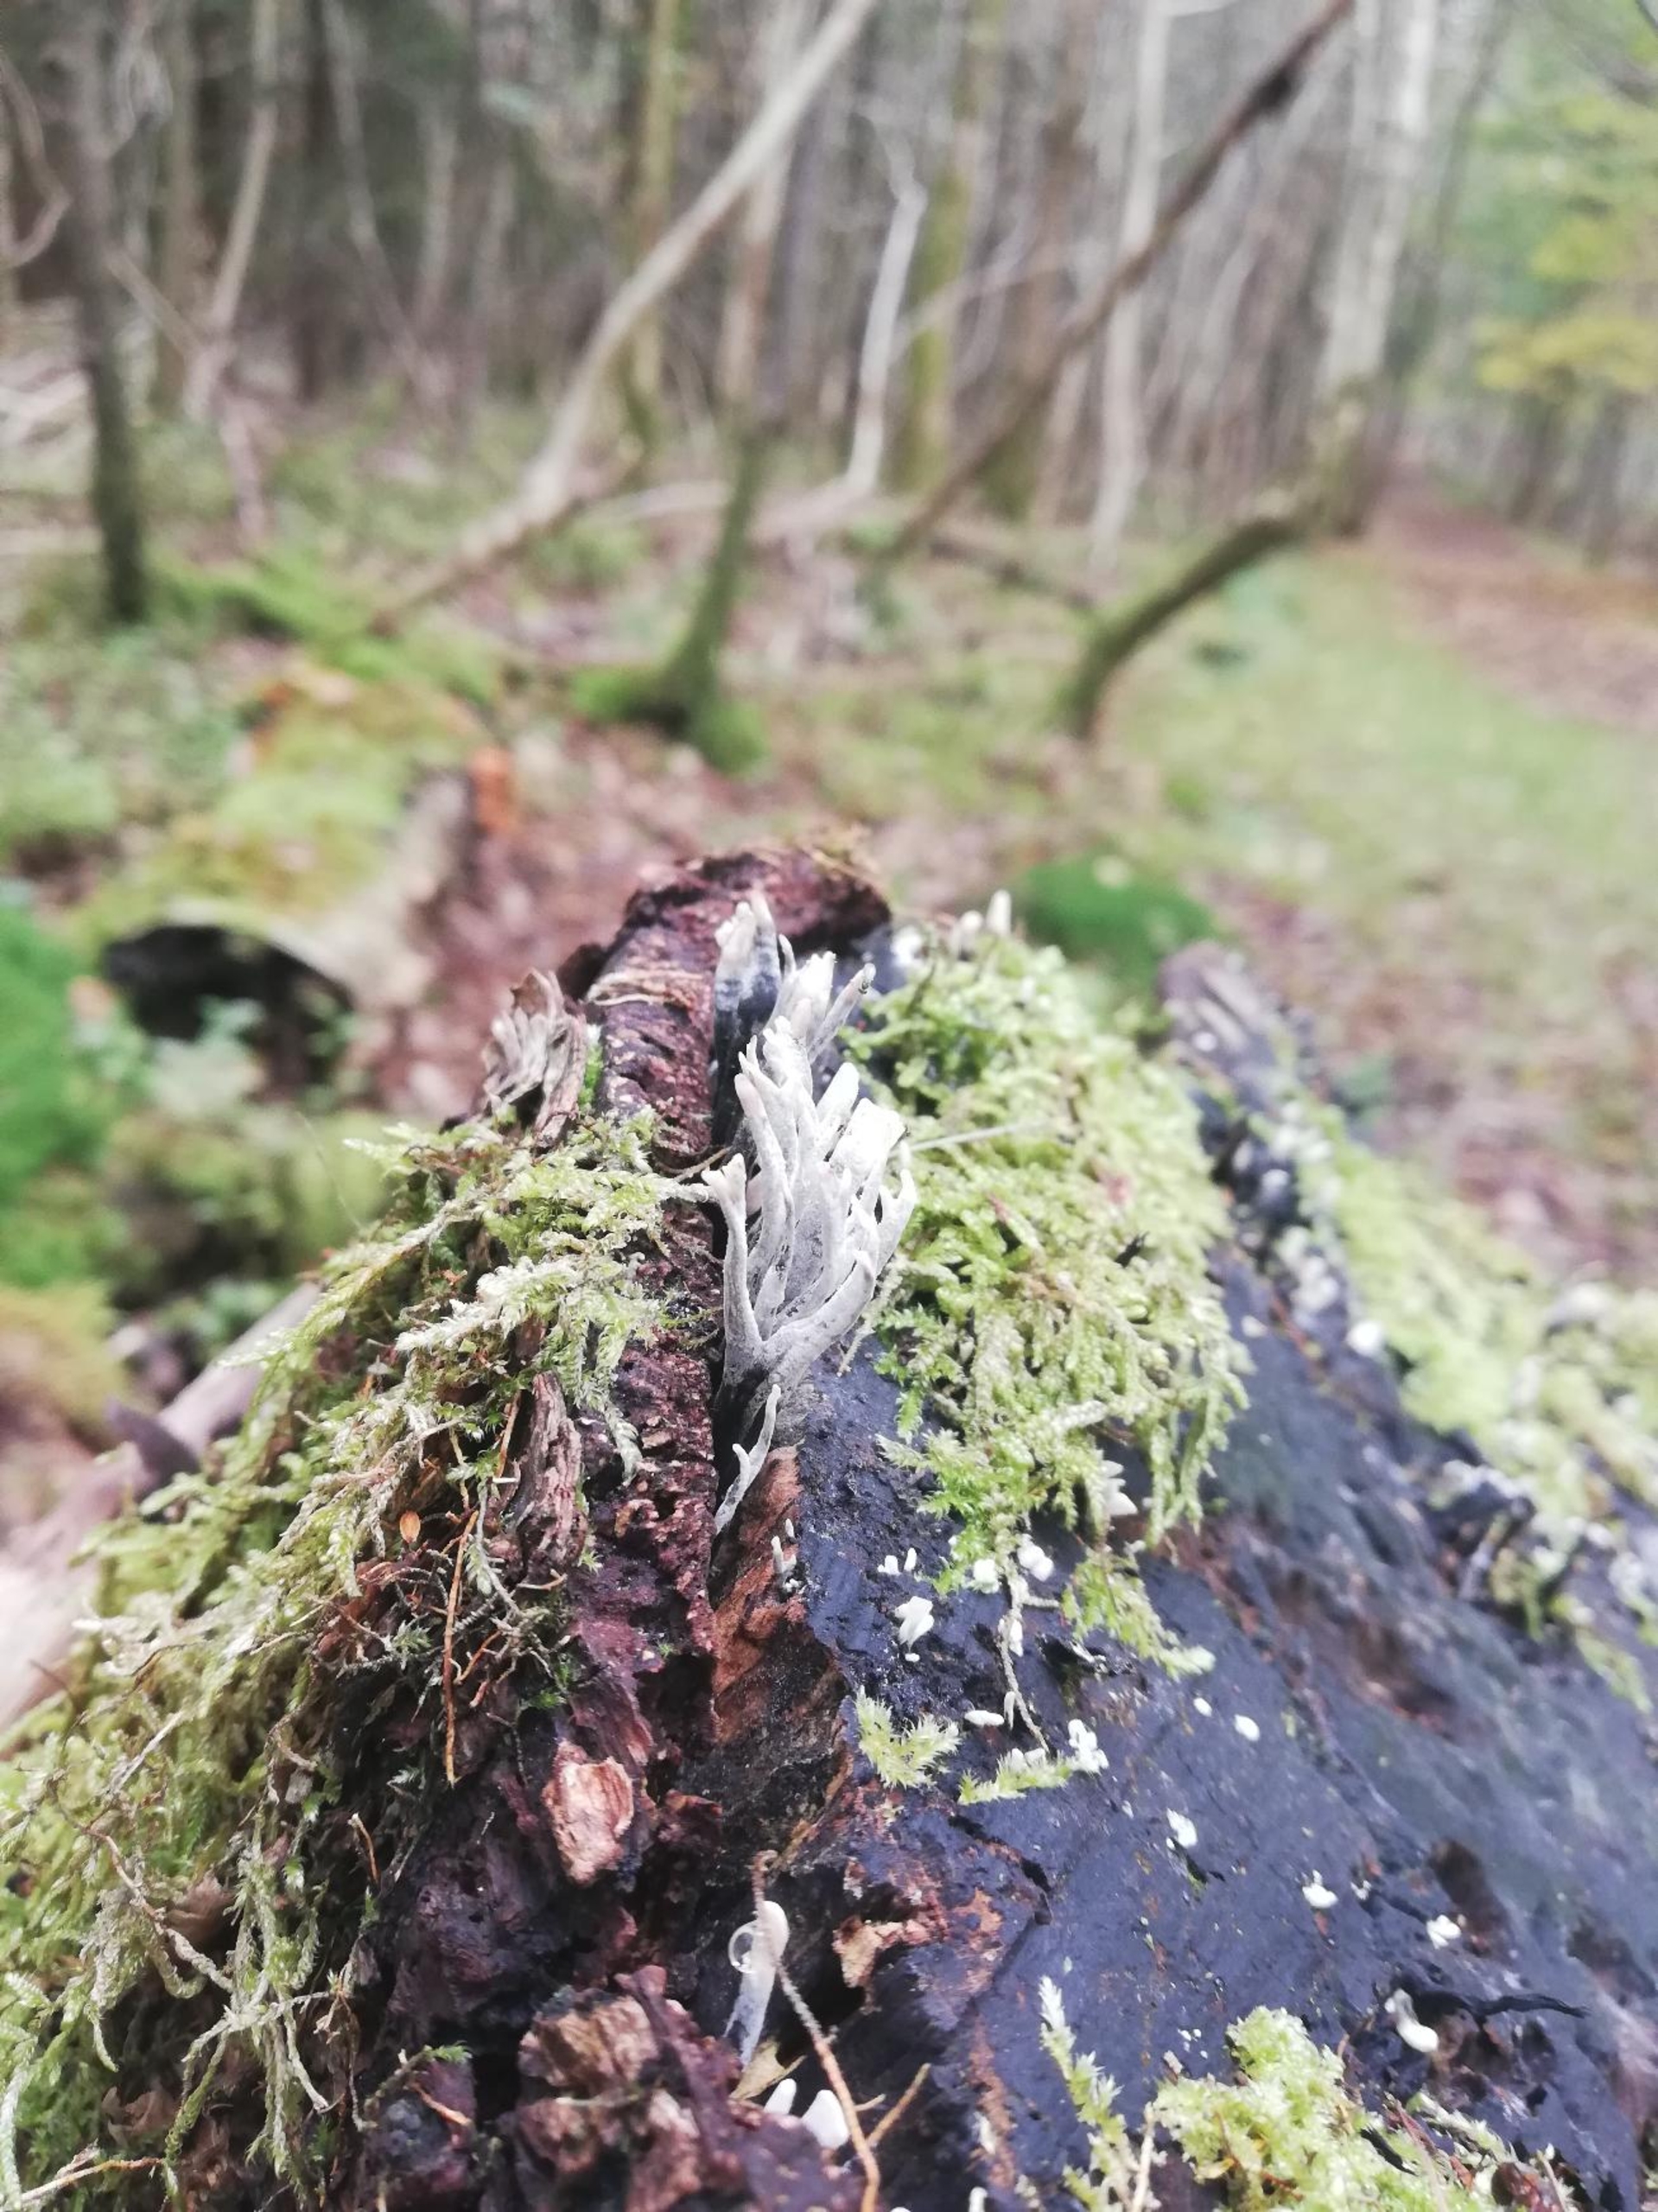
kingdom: Fungi
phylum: Ascomycota
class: Sordariomycetes
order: Xylariales
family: Xylariaceae
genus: Xylaria
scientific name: Xylaria hypoxylon
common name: Grenet stødsvamp
